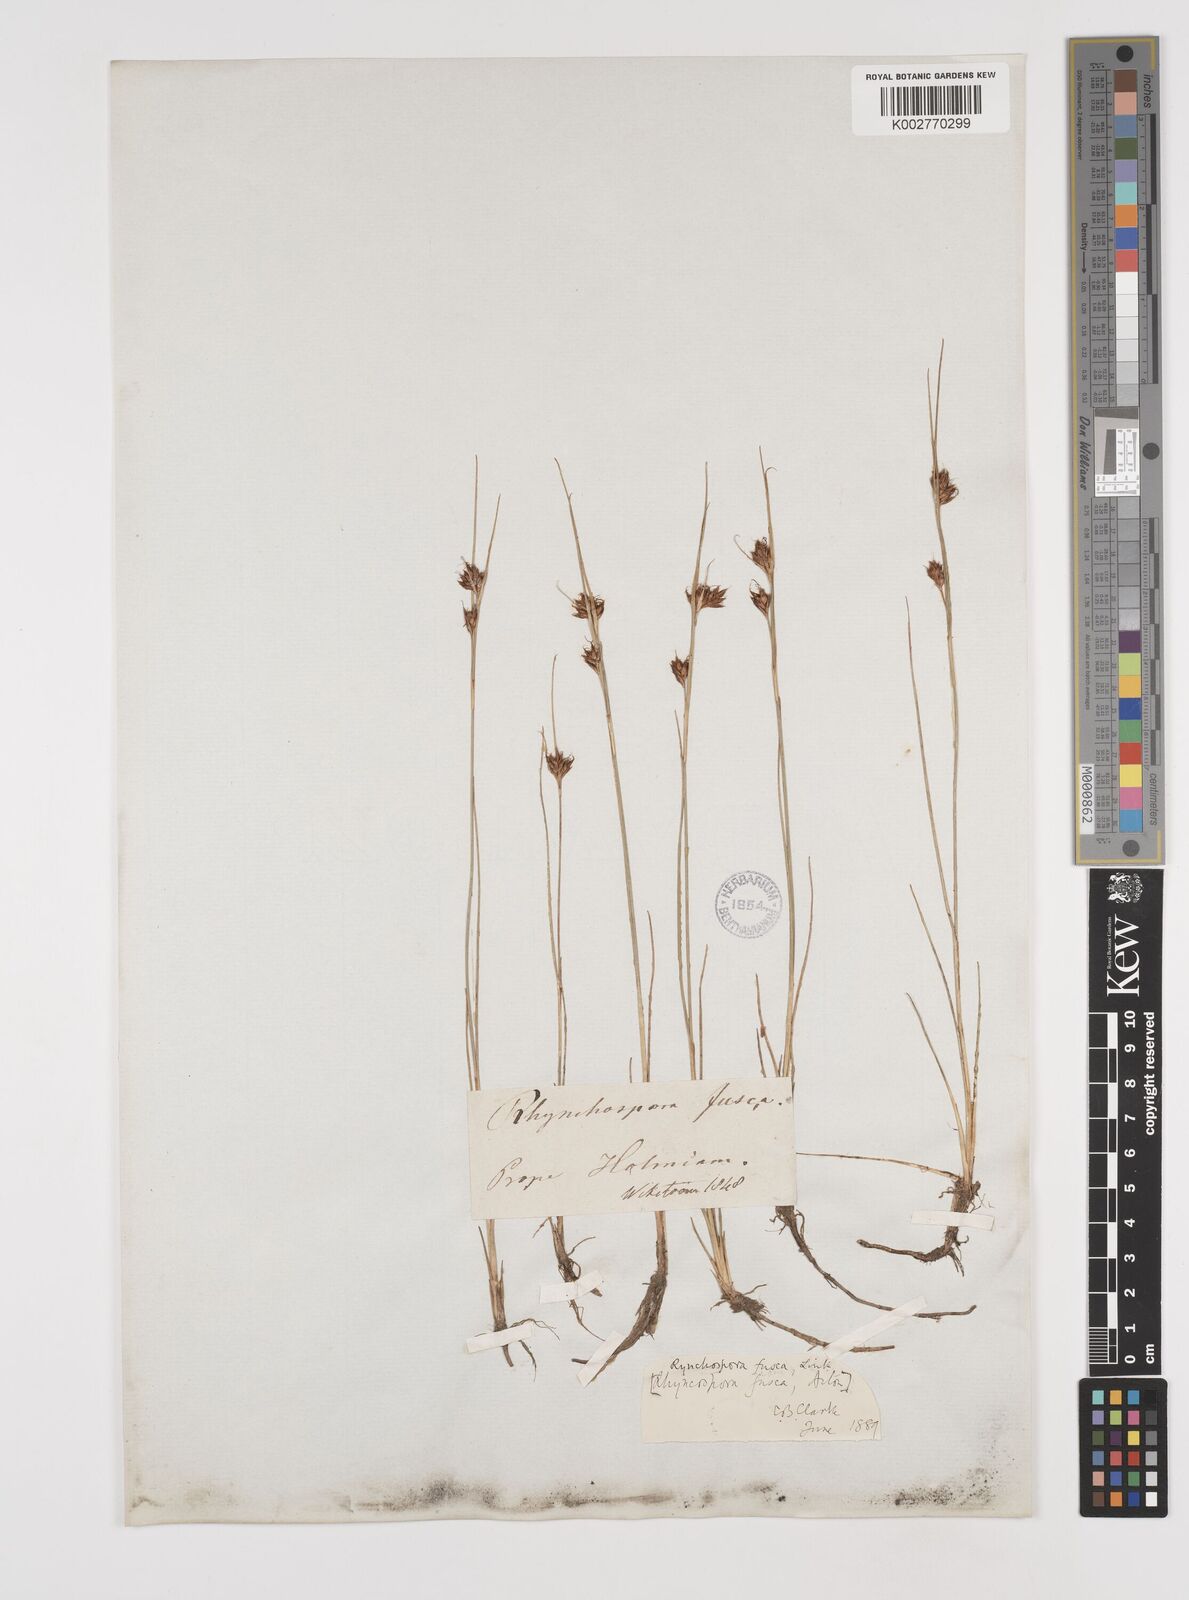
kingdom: Plantae
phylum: Tracheophyta
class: Liliopsida
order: Poales
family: Cyperaceae
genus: Rhynchospora
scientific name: Rhynchospora fusca
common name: Brown beak-sedge
